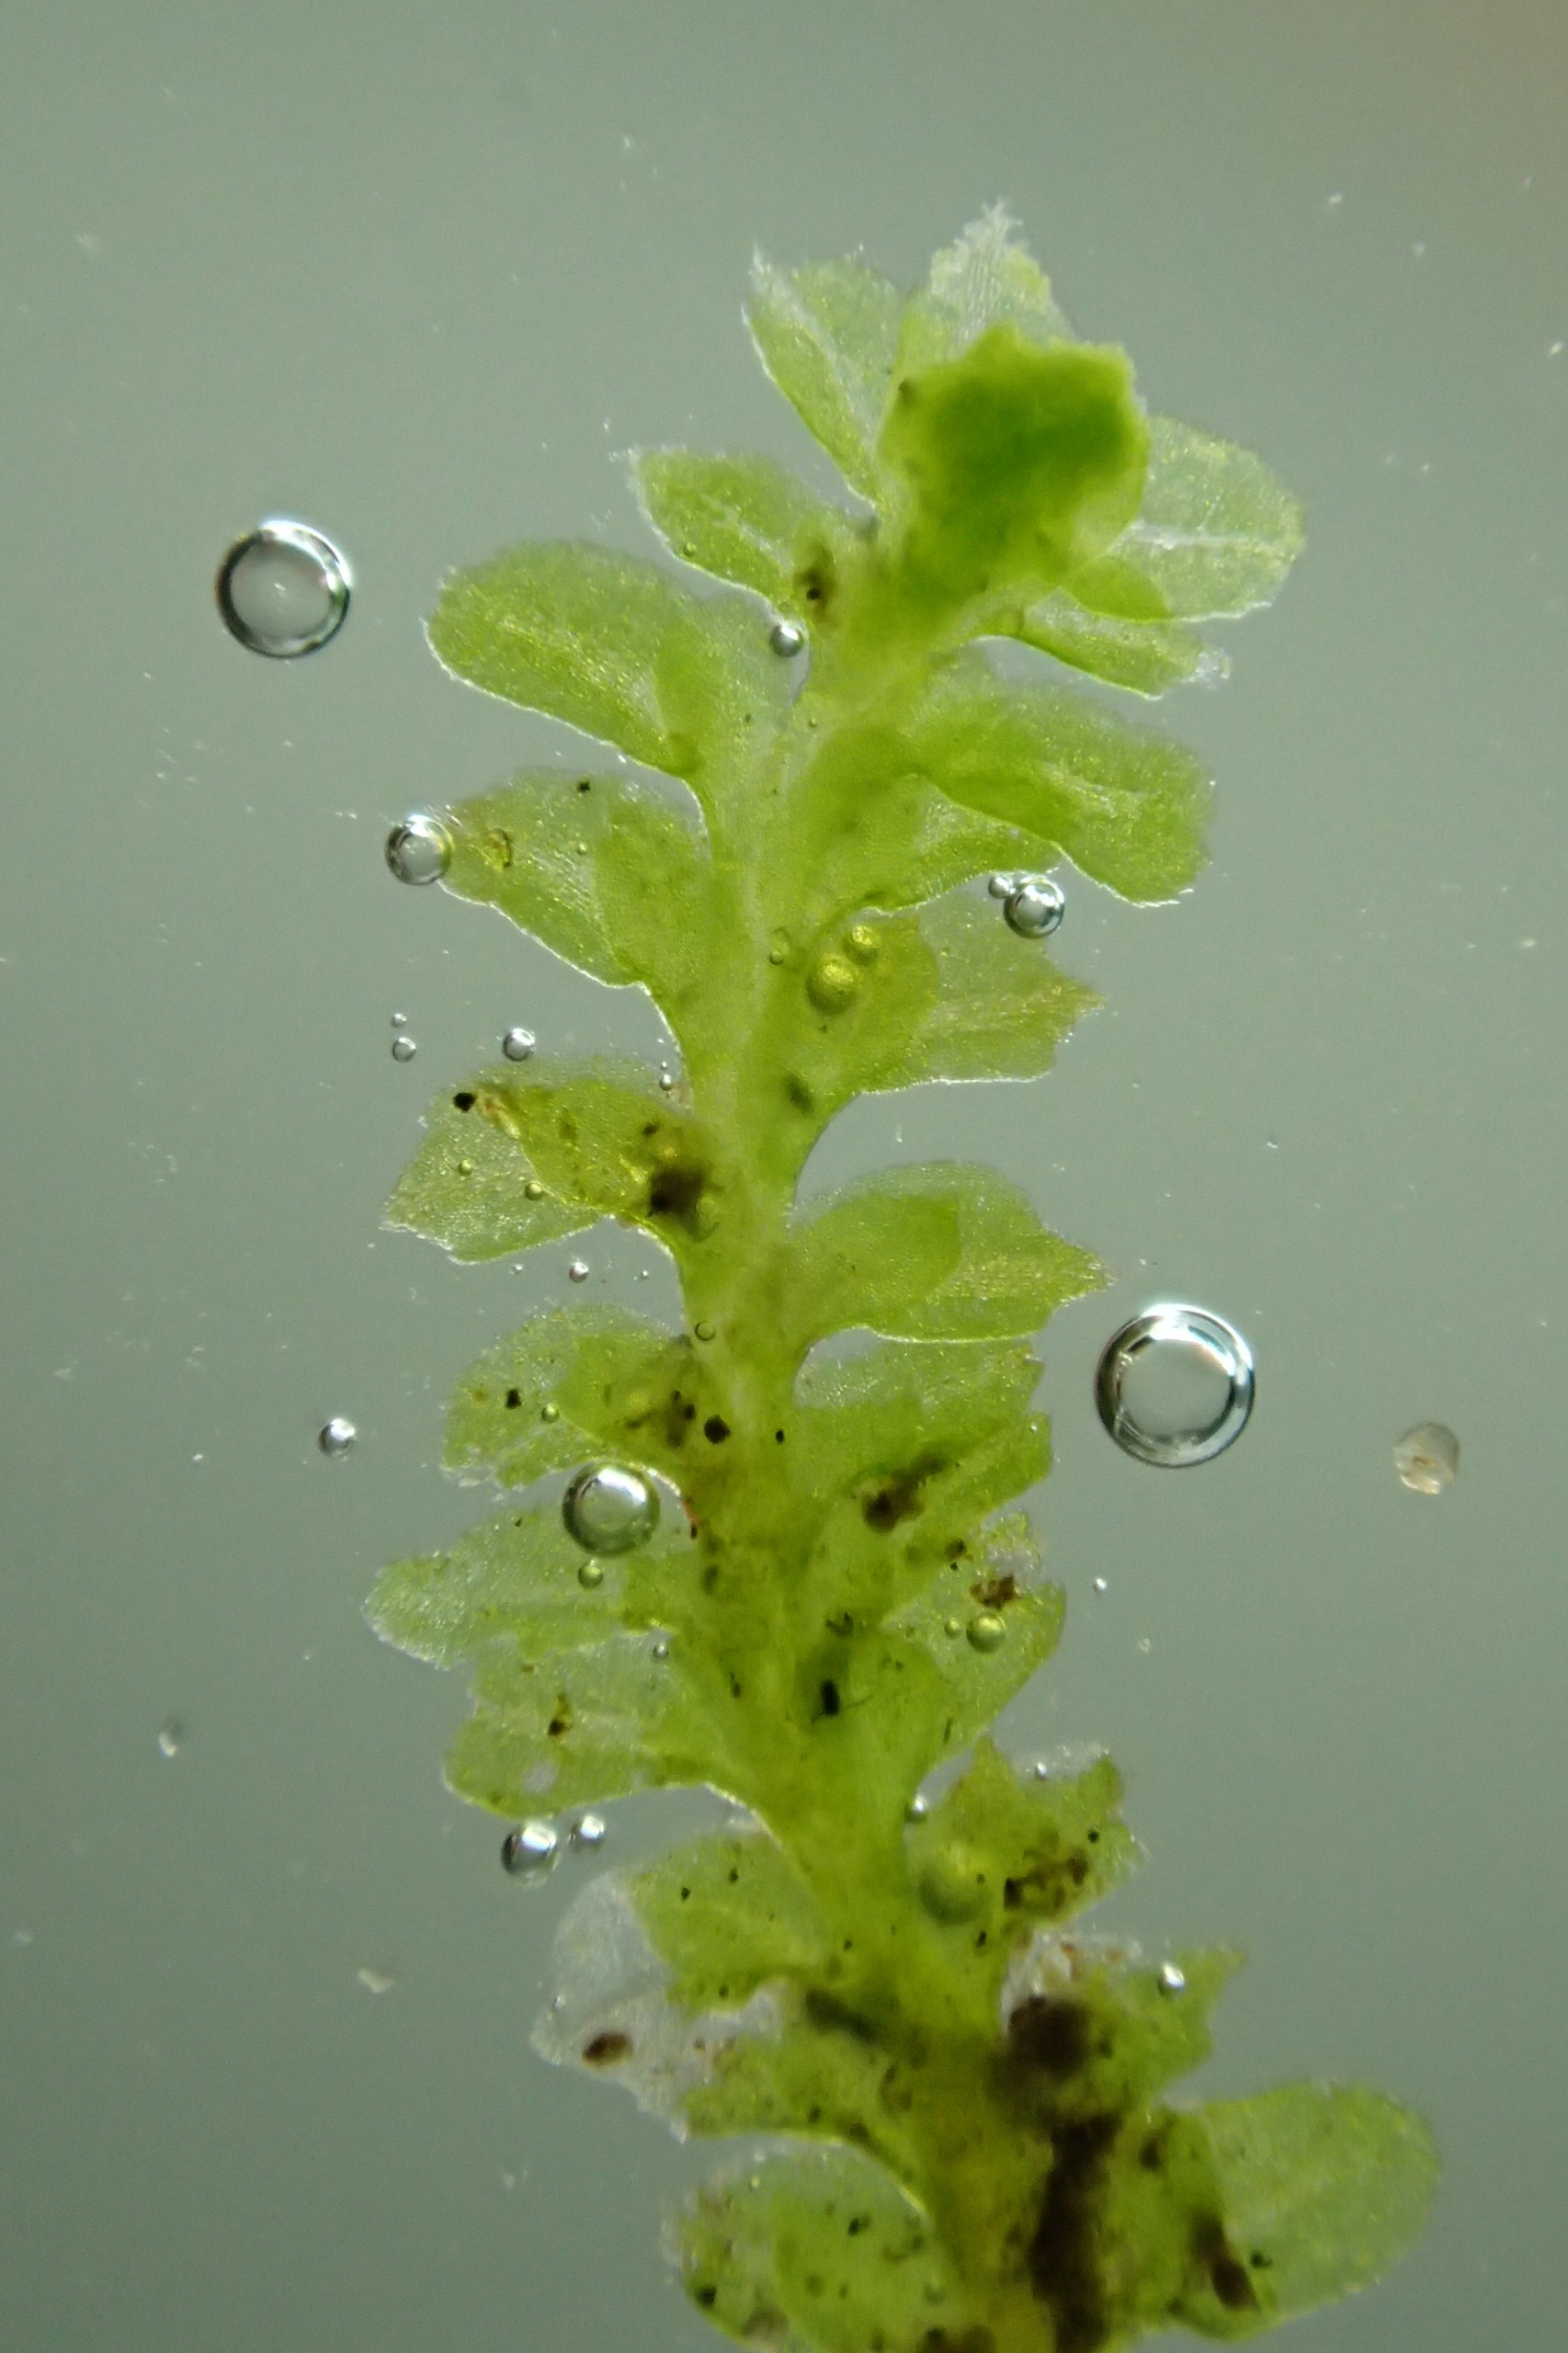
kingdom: Plantae
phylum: Marchantiophyta
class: Jungermanniopsida
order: Jungermanniales
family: Scapaniaceae
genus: Diplophyllum
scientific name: Diplophyllum albicans
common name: Stribet dobbeltblad
